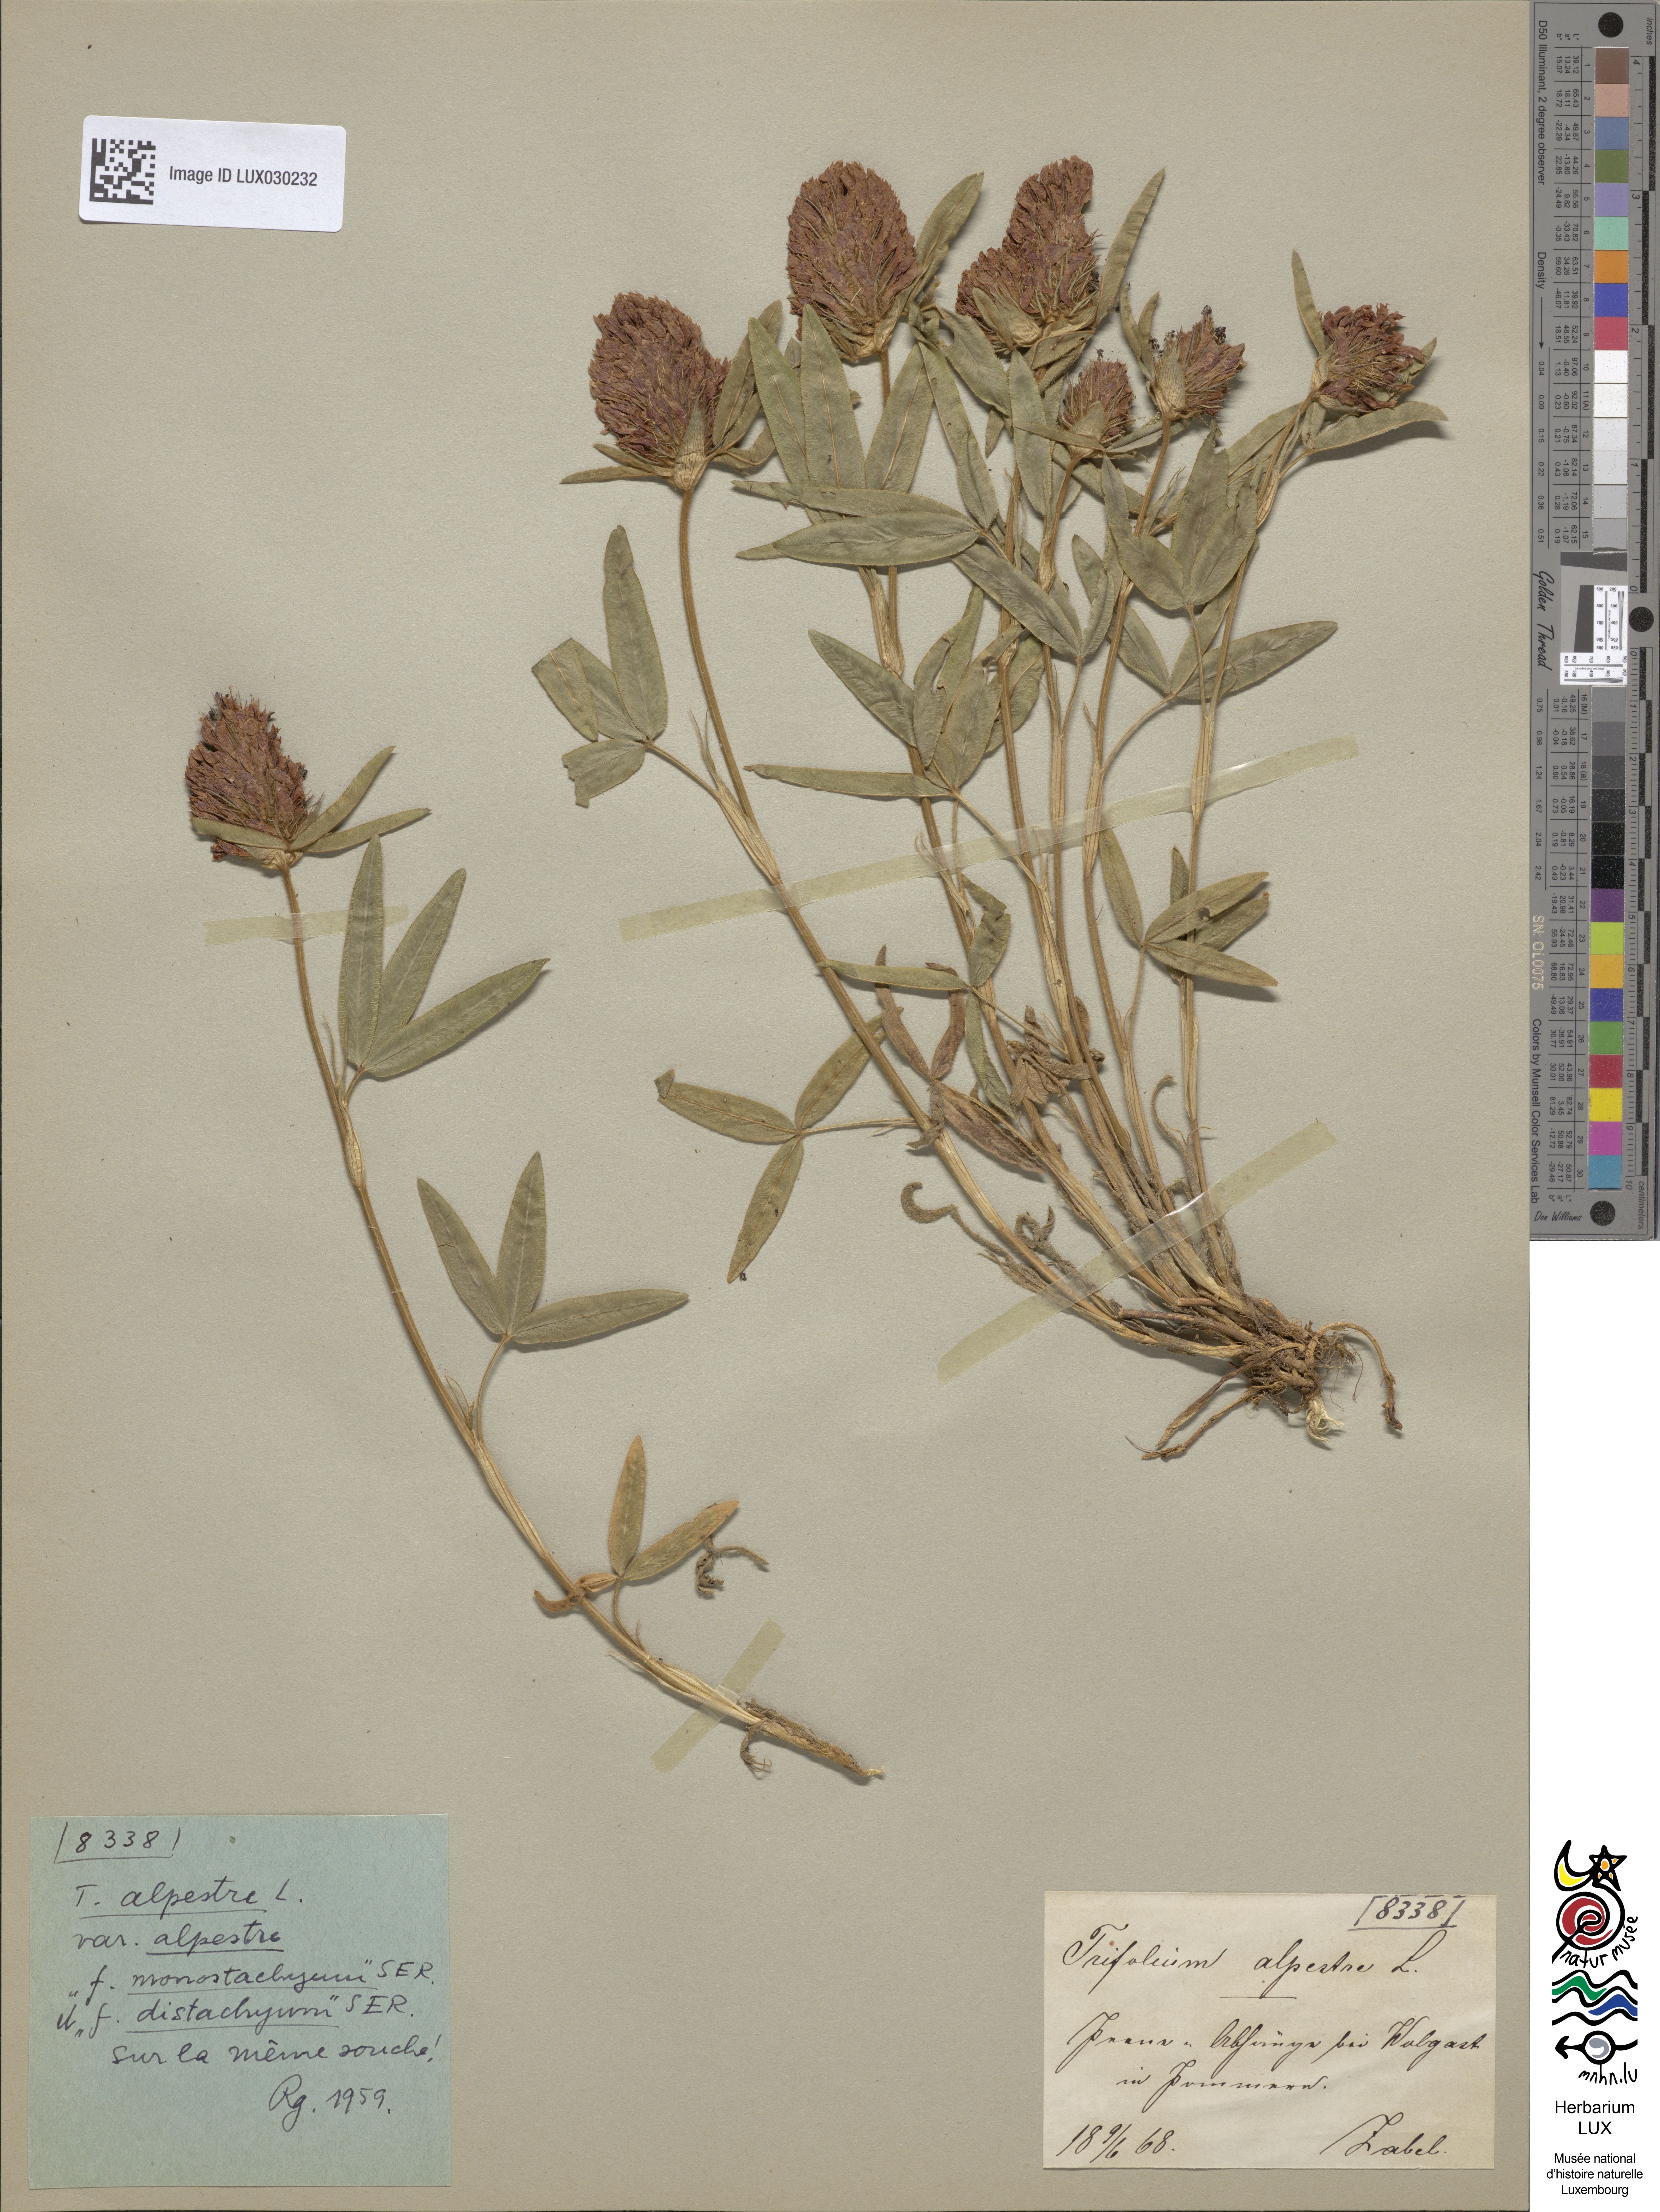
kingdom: Plantae
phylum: Tracheophyta
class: Magnoliopsida
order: Fabales
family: Fabaceae
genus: Trifolium
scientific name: Trifolium alpestre
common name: Owl-head clover
